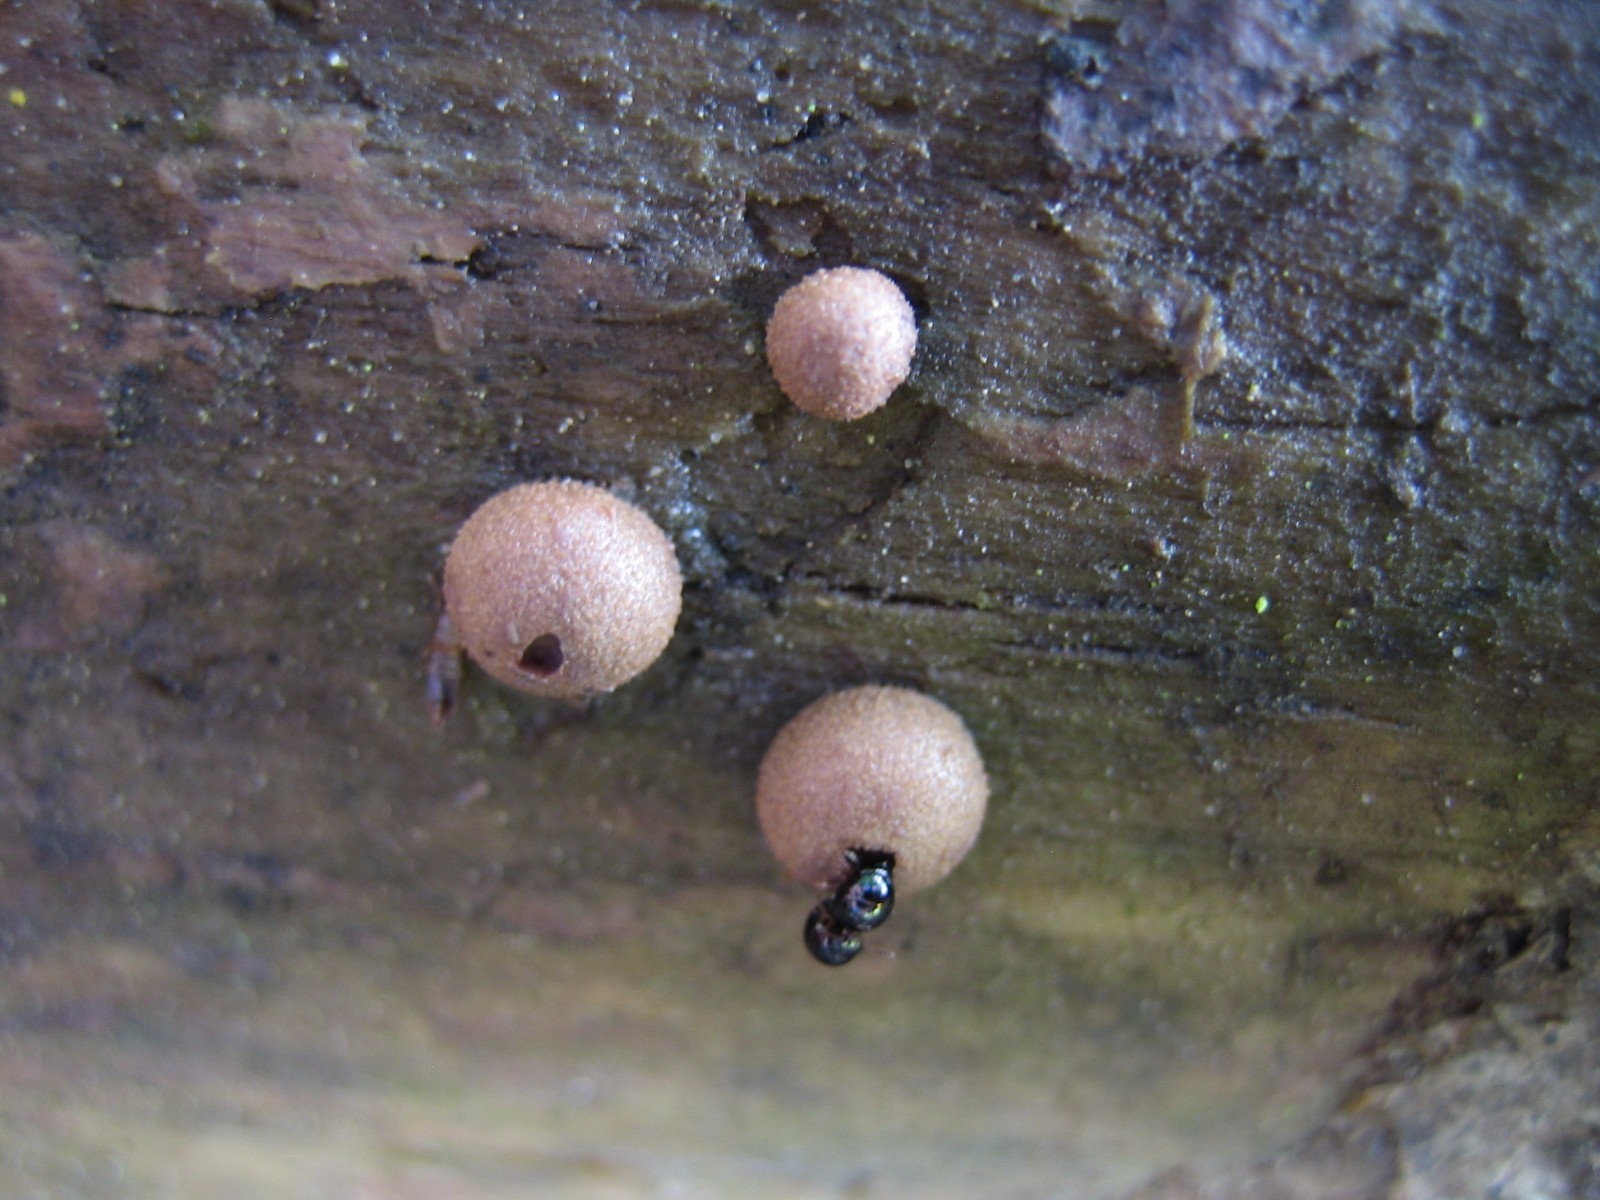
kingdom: Protozoa
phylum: Mycetozoa
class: Myxomycetes
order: Cribrariales
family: Tubiferaceae
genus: Lycogala
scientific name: Lycogala epidendrum
